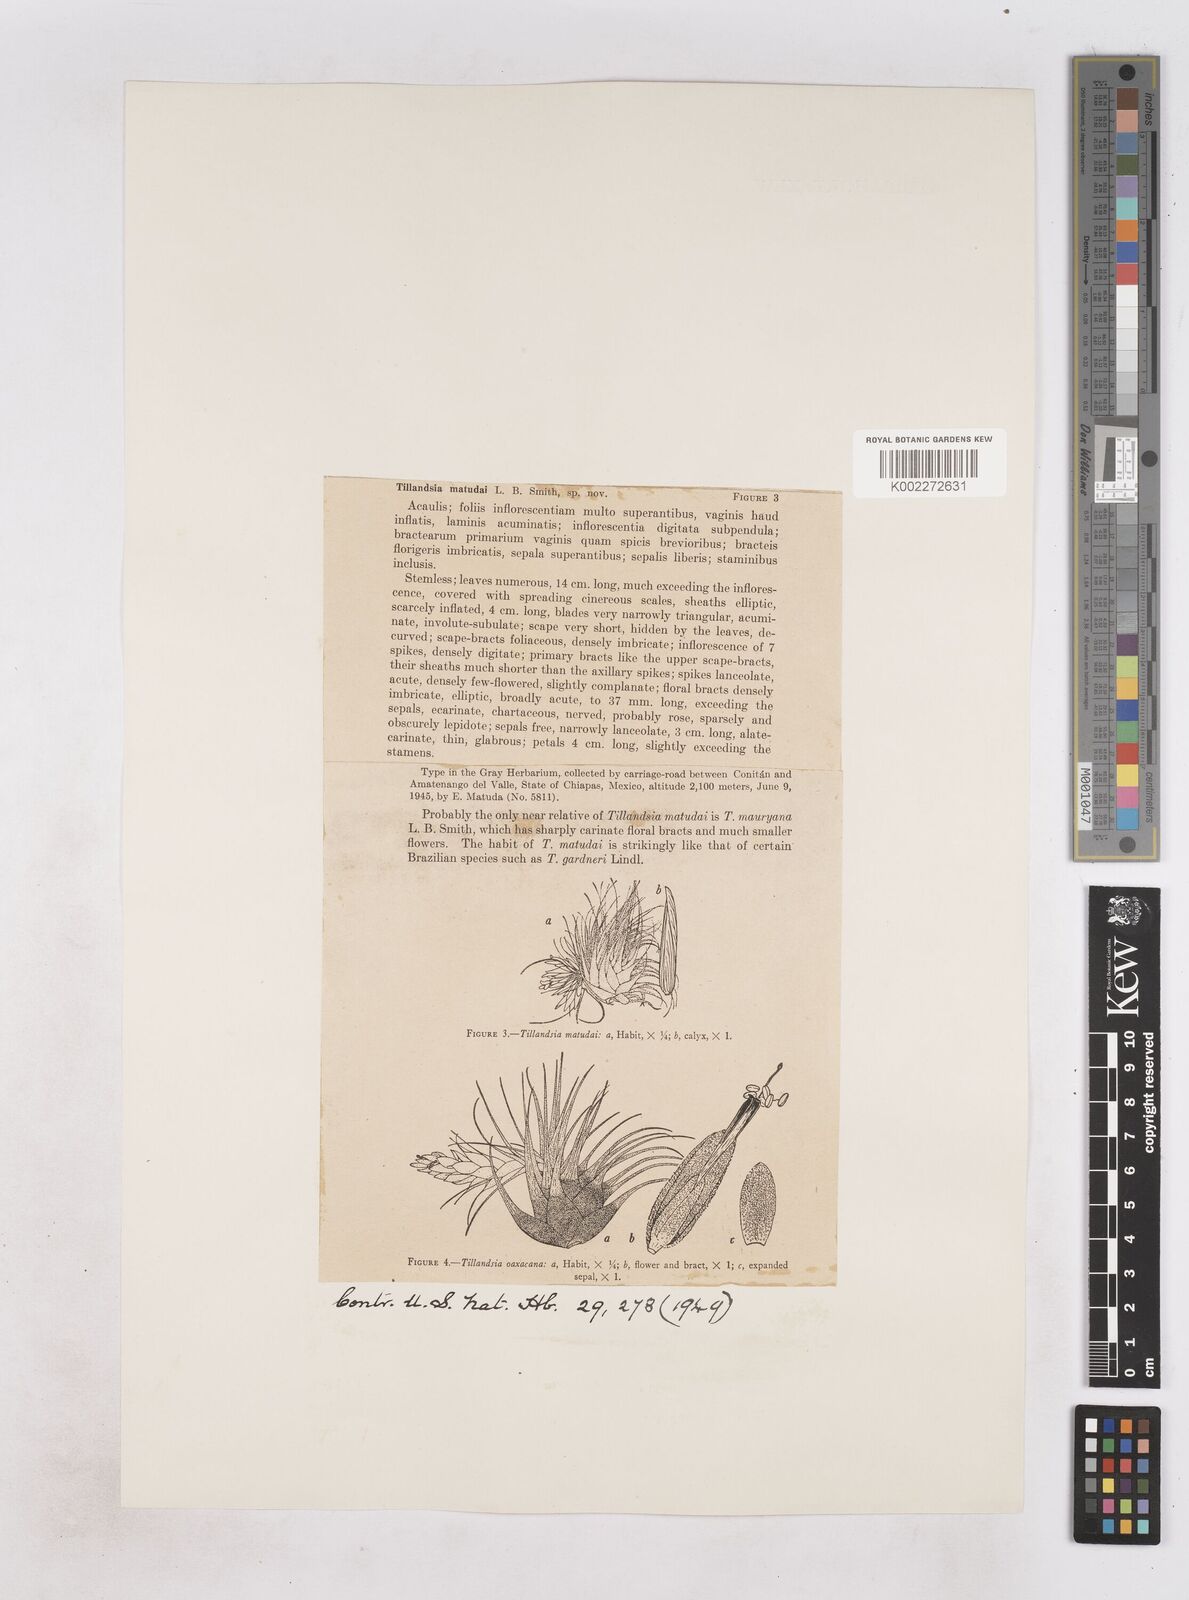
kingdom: Plantae
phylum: Tracheophyta
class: Liliopsida
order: Poales
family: Bromeliaceae
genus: Tillandsia
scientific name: Tillandsia matudae
